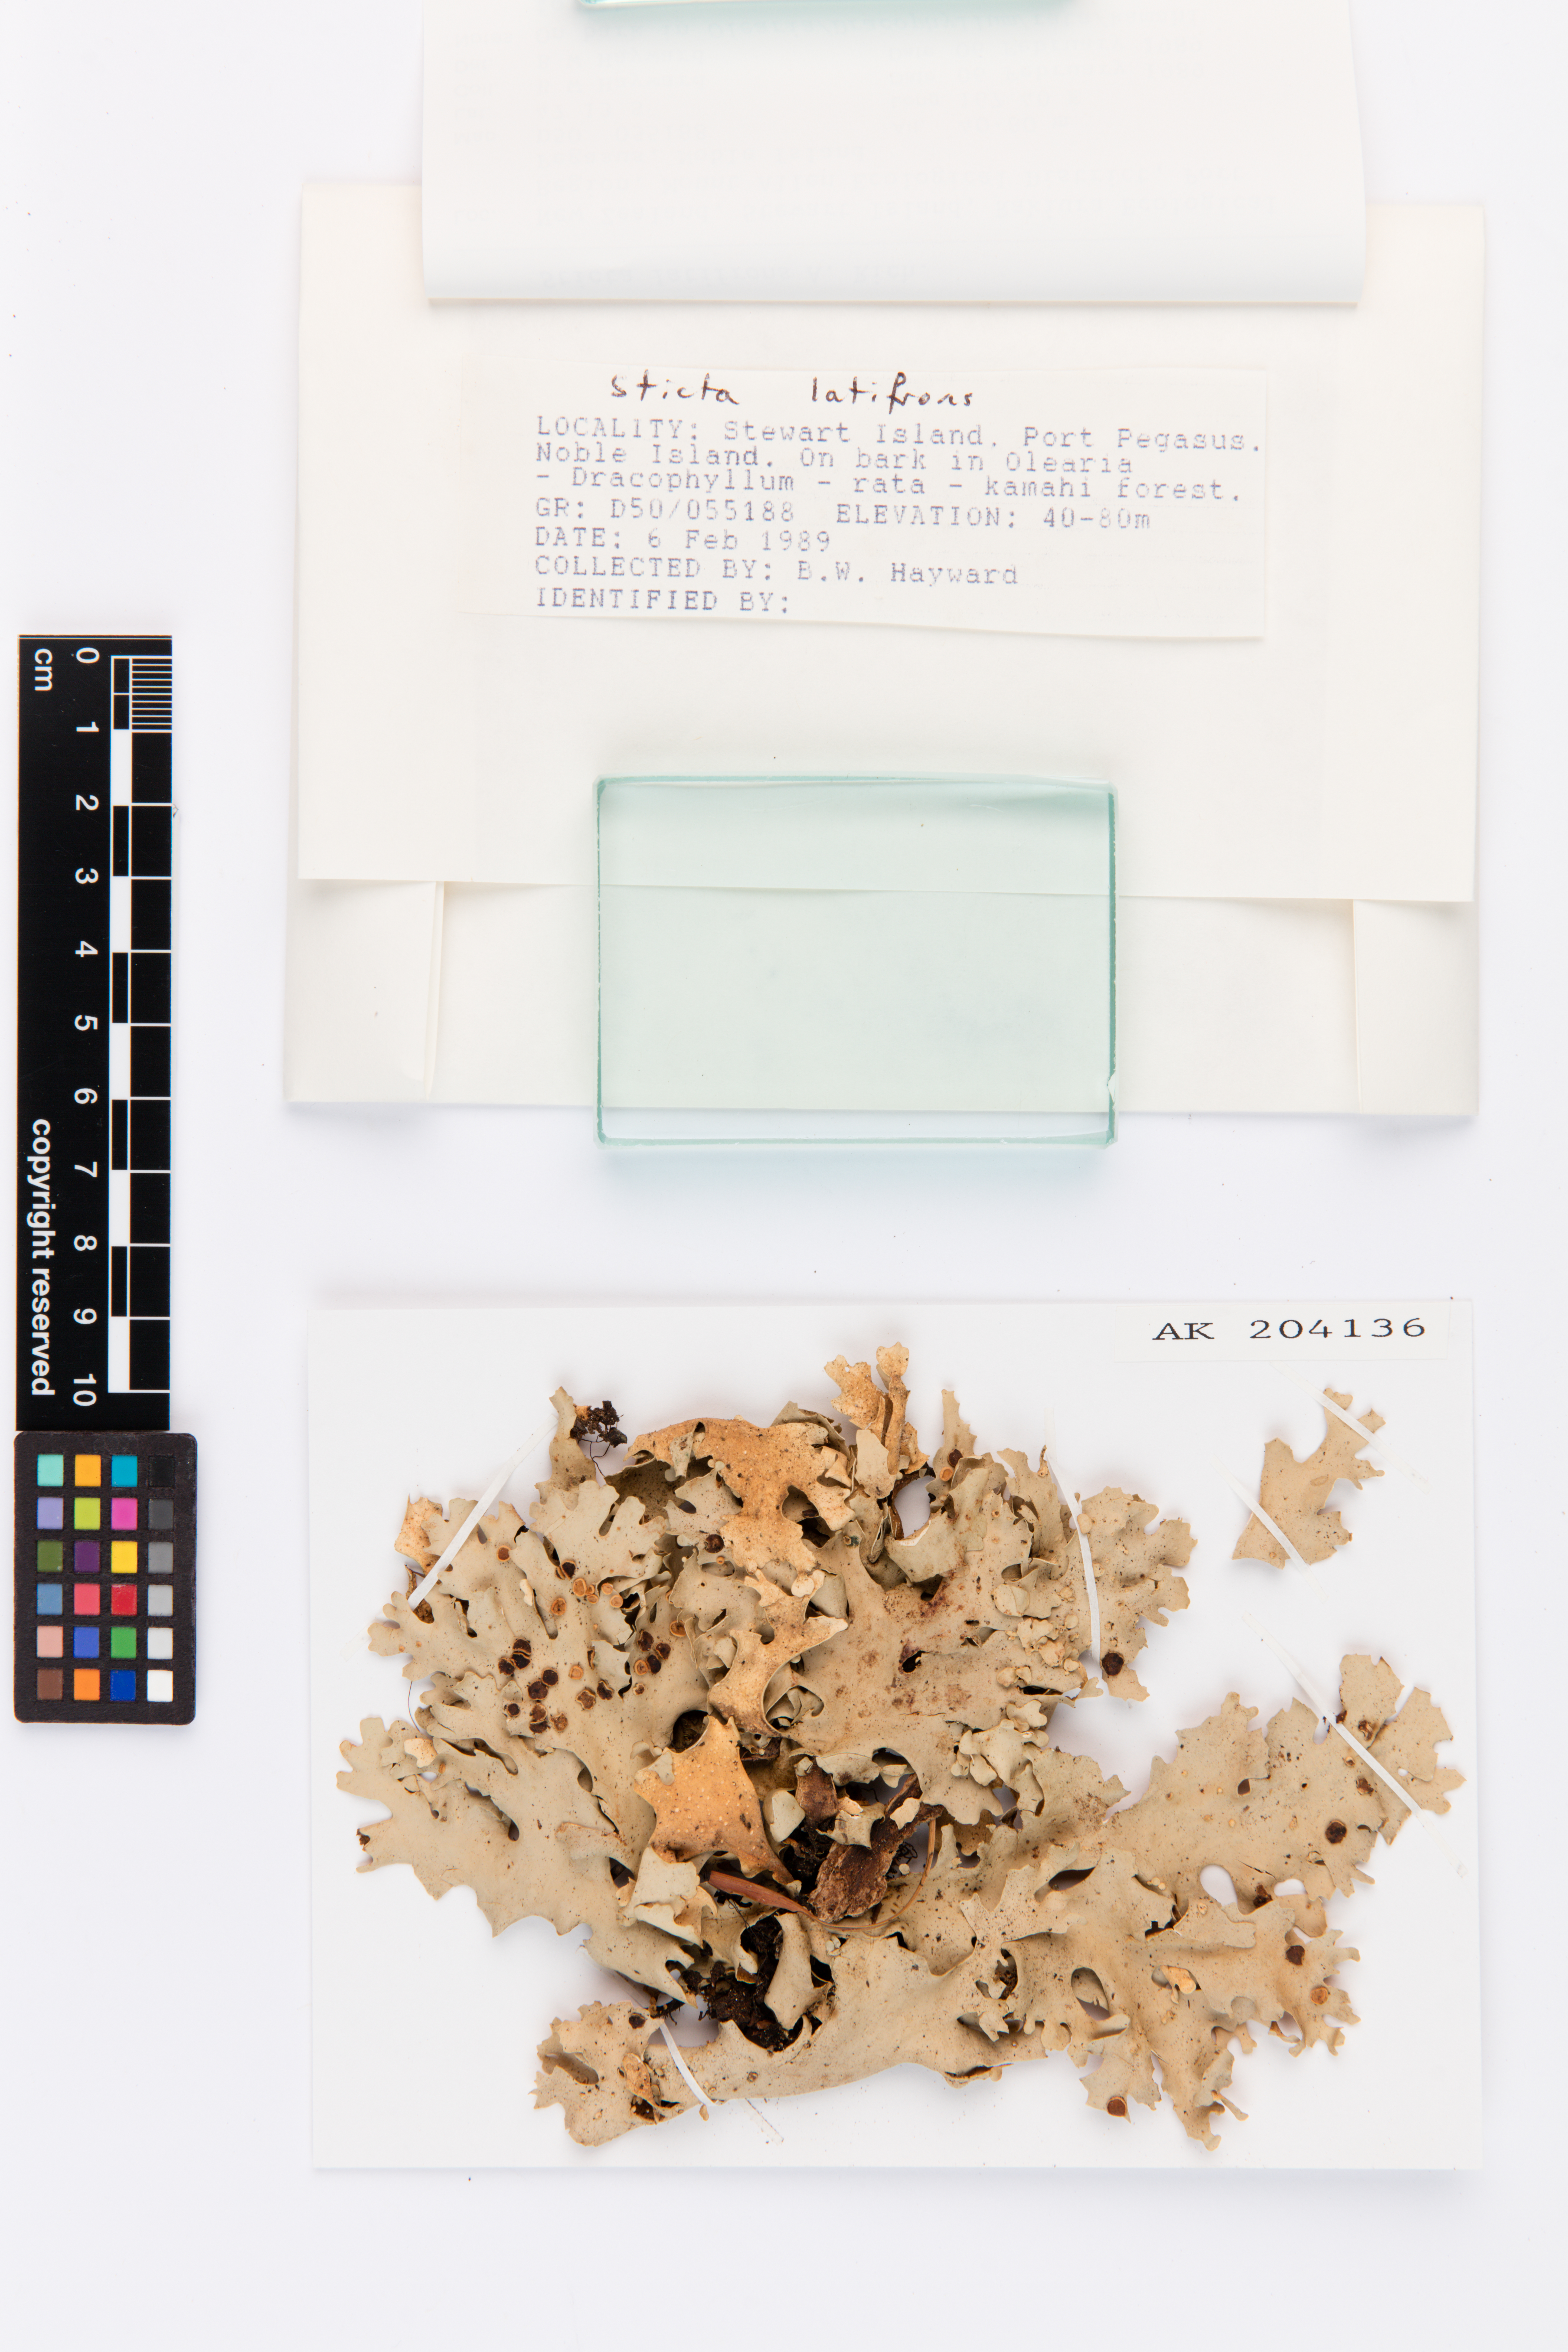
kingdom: Fungi
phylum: Ascomycota
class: Lecanoromycetes
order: Peltigerales
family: Lobariaceae
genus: Sticta
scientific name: Sticta latifrons
